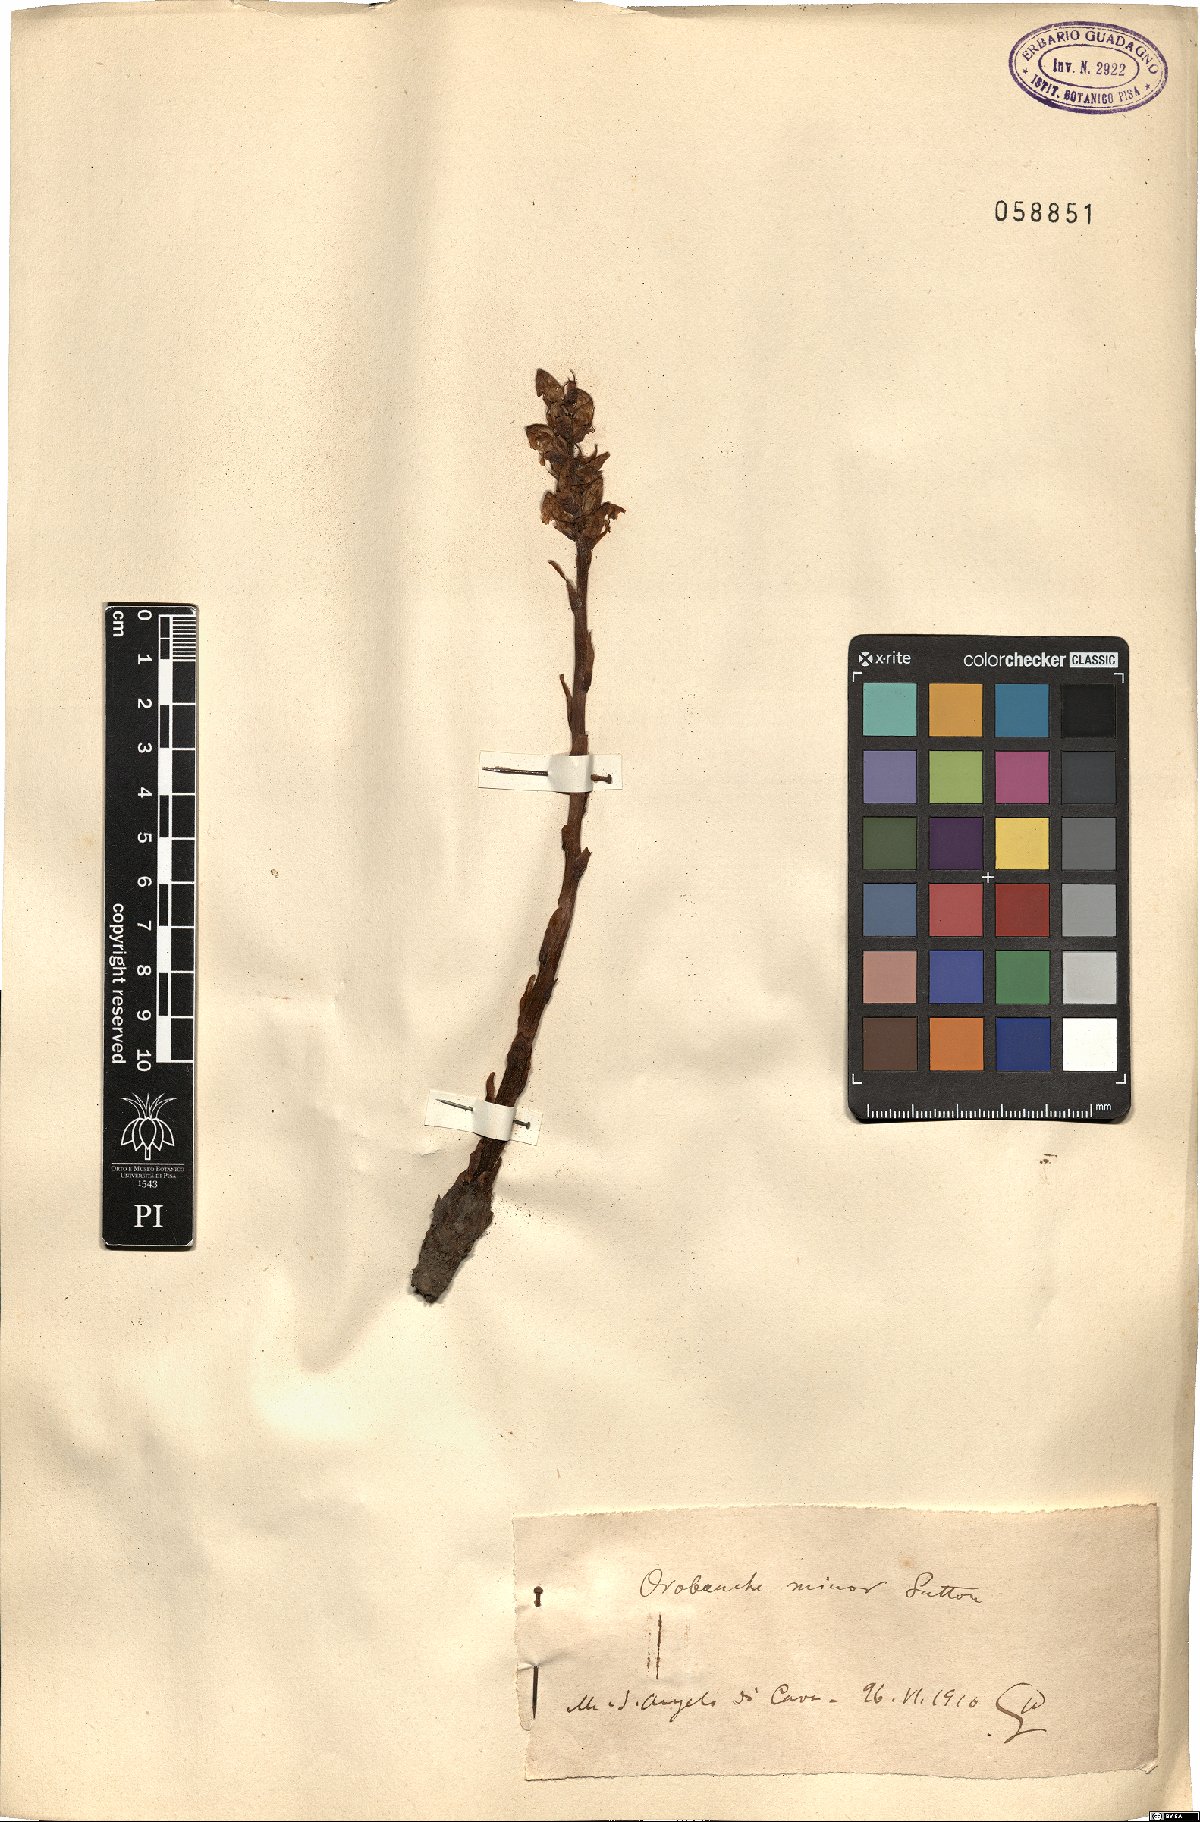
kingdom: Plantae
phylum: Tracheophyta
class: Magnoliopsida
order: Lamiales
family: Orobanchaceae
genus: Orobanche
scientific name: Orobanche minor
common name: Common broomrape
